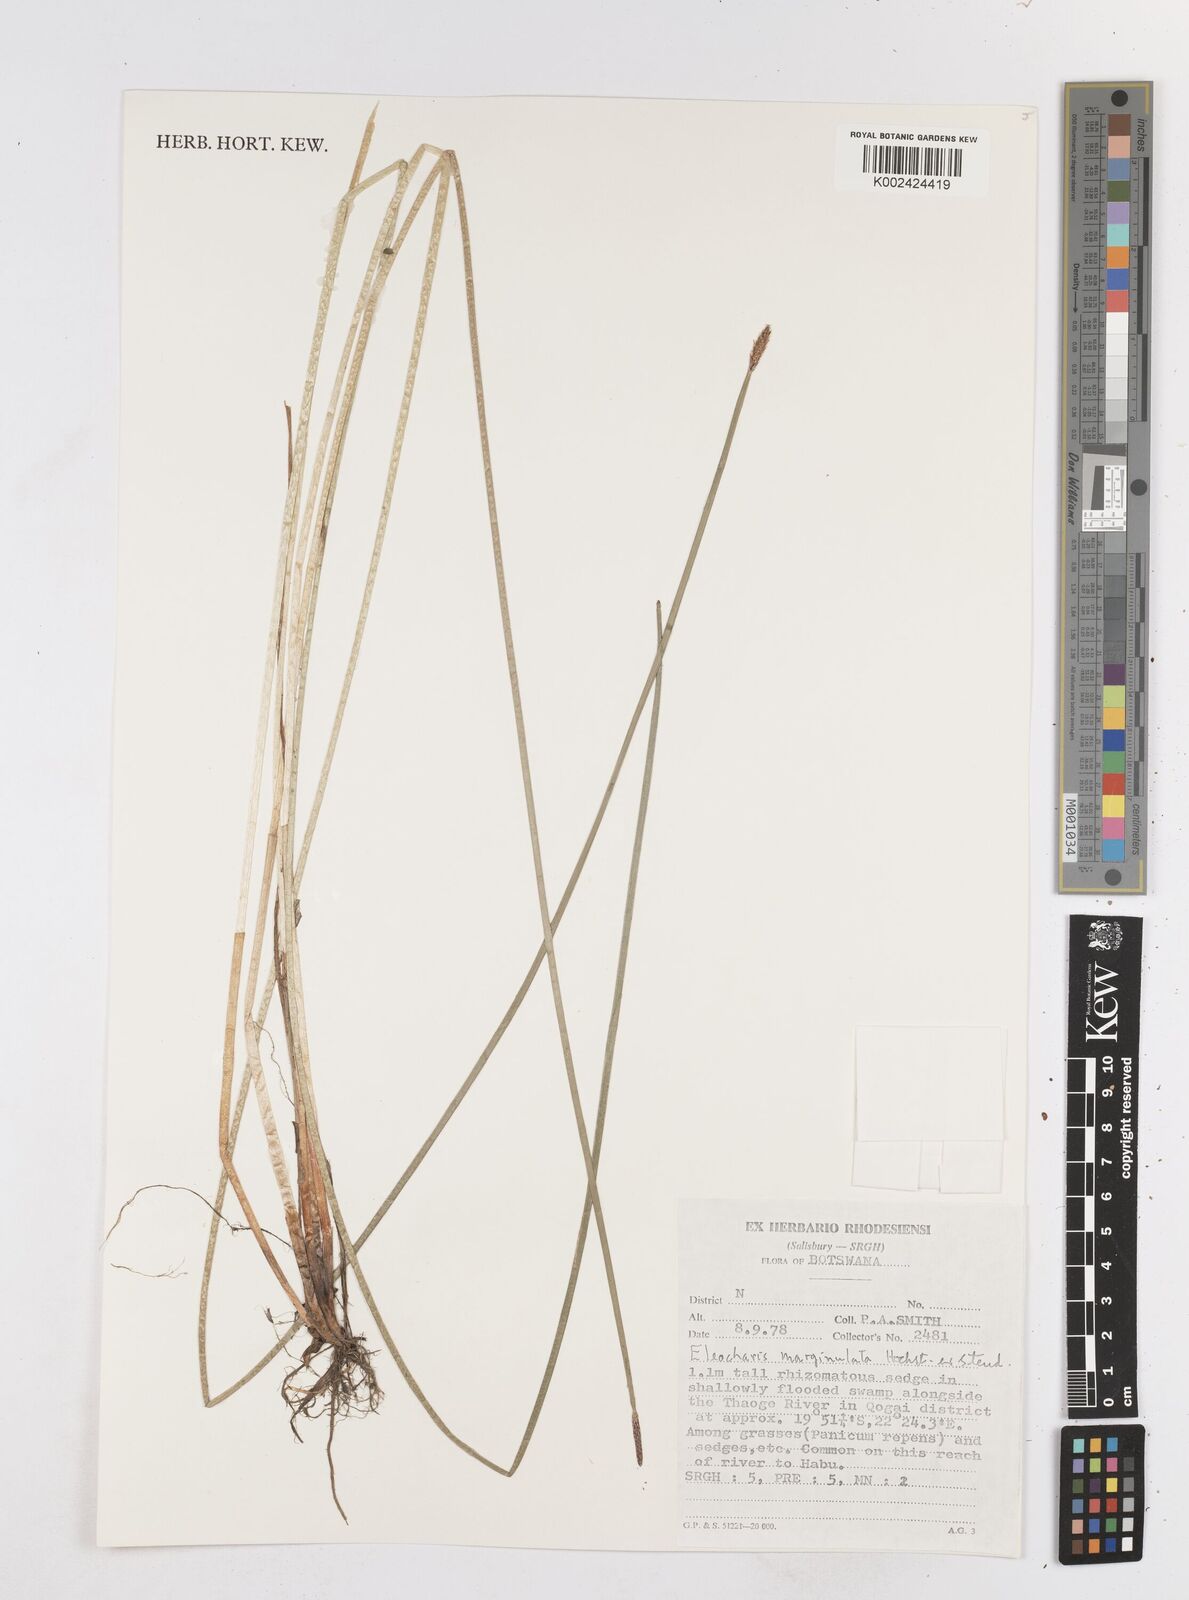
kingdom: Plantae
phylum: Tracheophyta
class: Liliopsida
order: Poales
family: Cyperaceae
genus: Eleocharis
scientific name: Eleocharis marginulata
